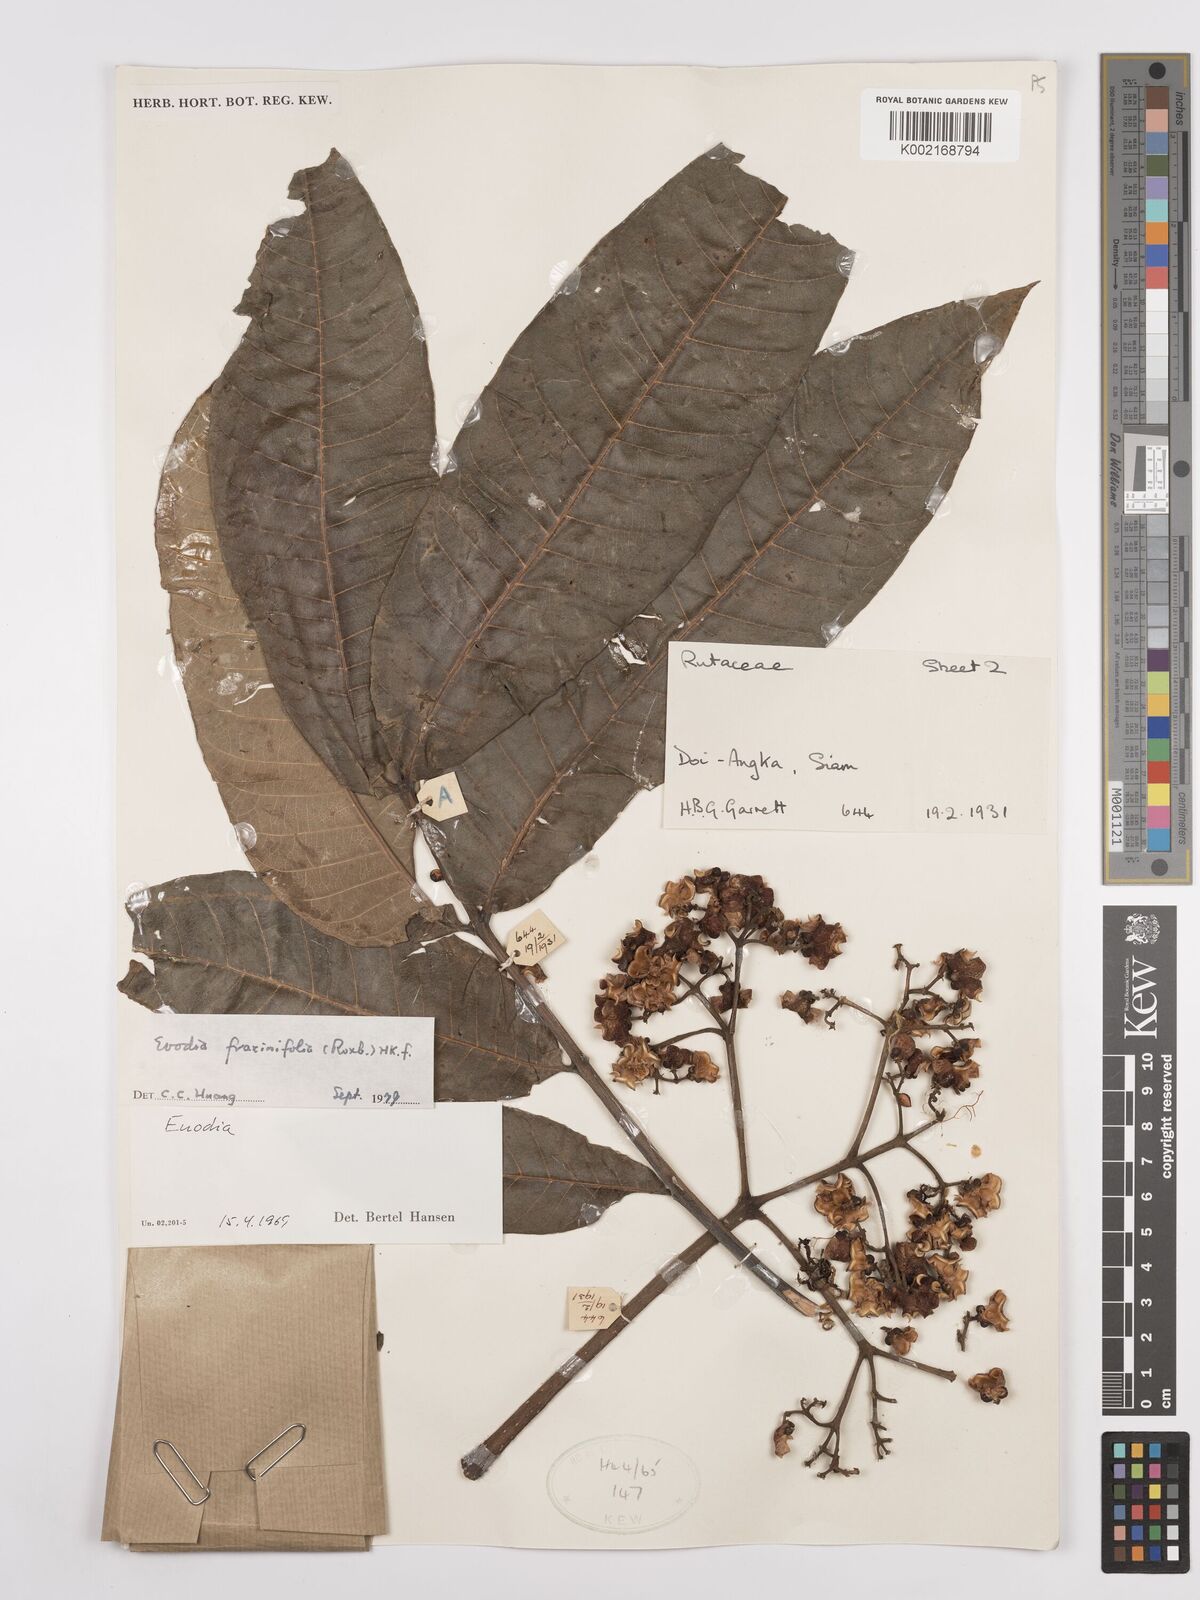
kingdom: Plantae
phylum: Tracheophyta
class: Magnoliopsida
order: Sapindales
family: Rutaceae
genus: Euodia
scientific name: Euodia
